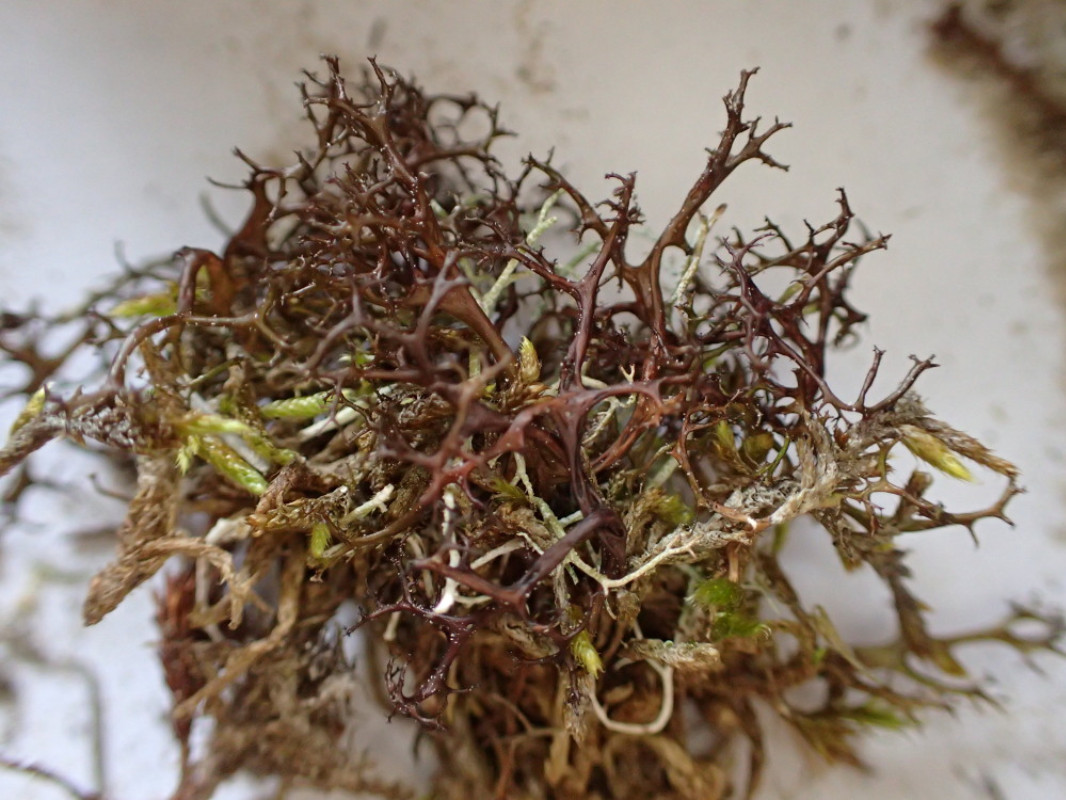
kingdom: Fungi
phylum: Ascomycota
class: Lecanoromycetes
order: Lecanorales
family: Parmeliaceae
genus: Cetraria
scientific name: Cetraria aculeata
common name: grubet tjørnelav
